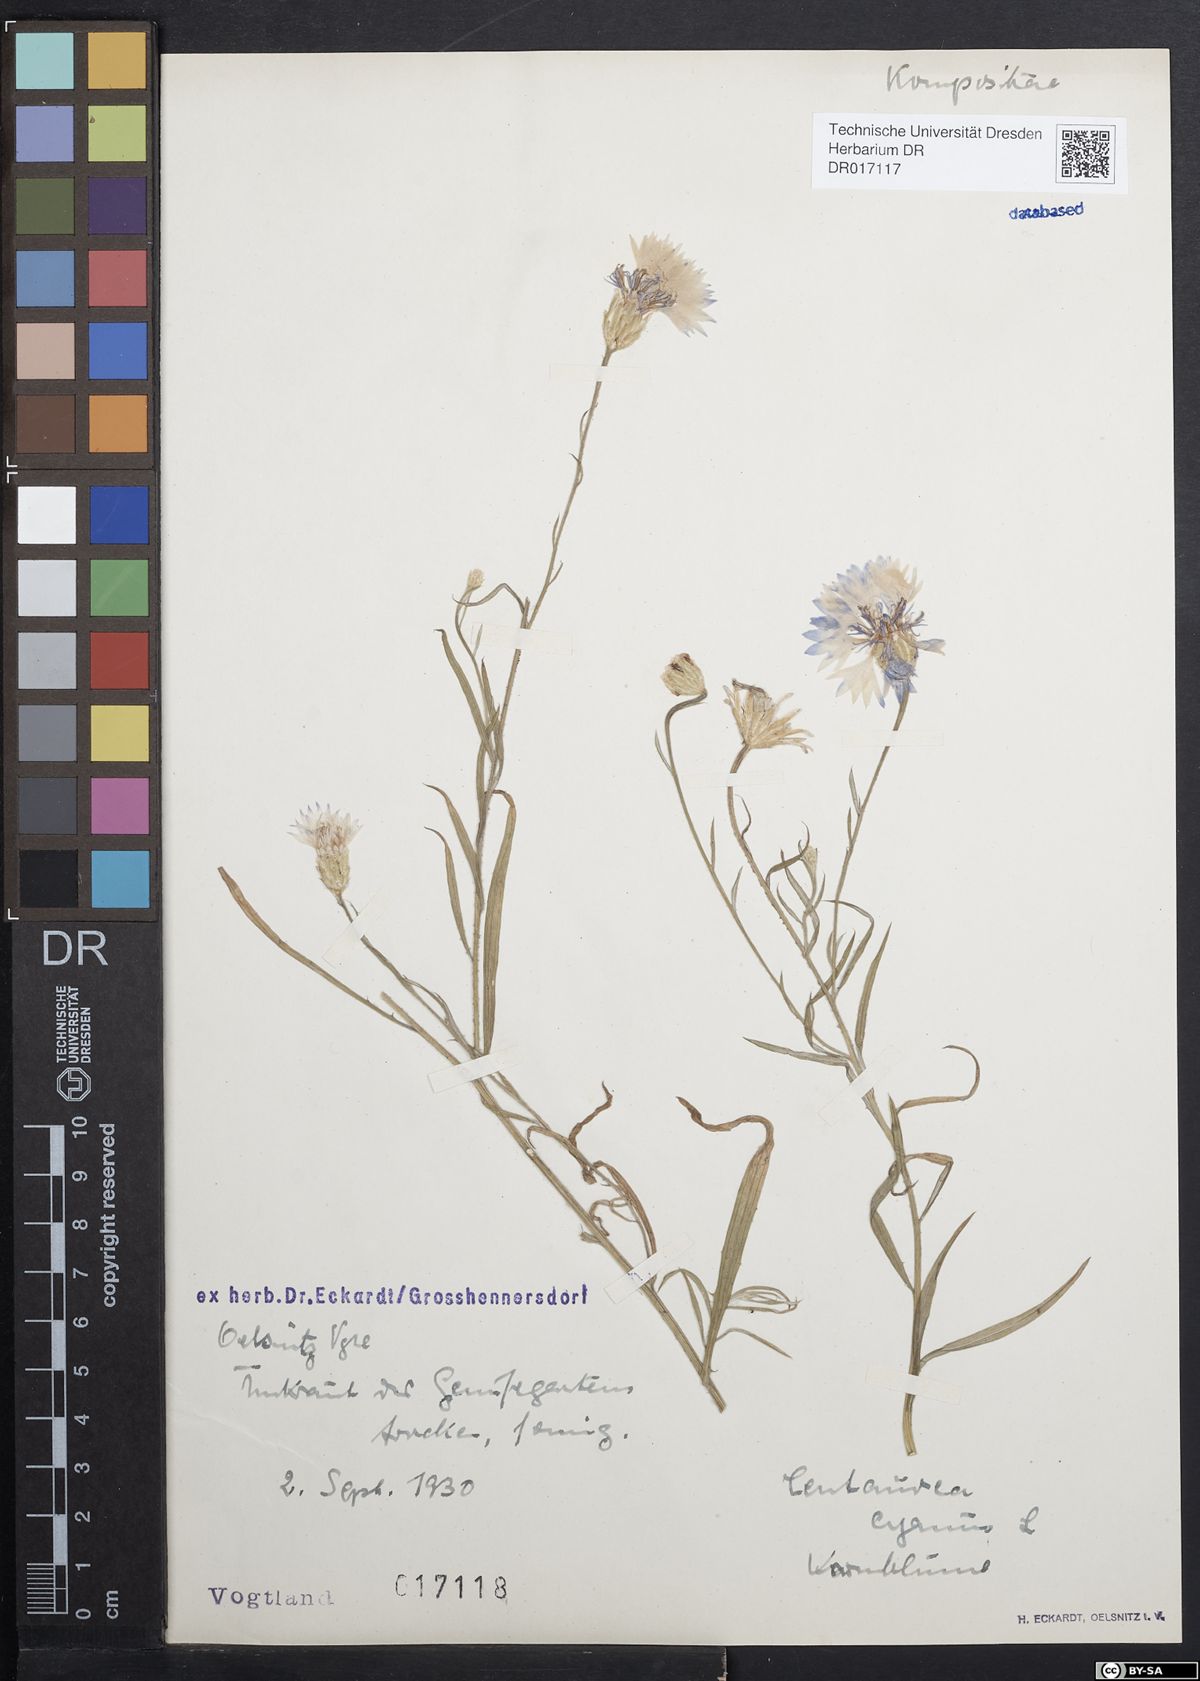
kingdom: Plantae
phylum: Tracheophyta
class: Magnoliopsida
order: Asterales
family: Asteraceae
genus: Centaurea
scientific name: Centaurea cyanus
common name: Cornflower
